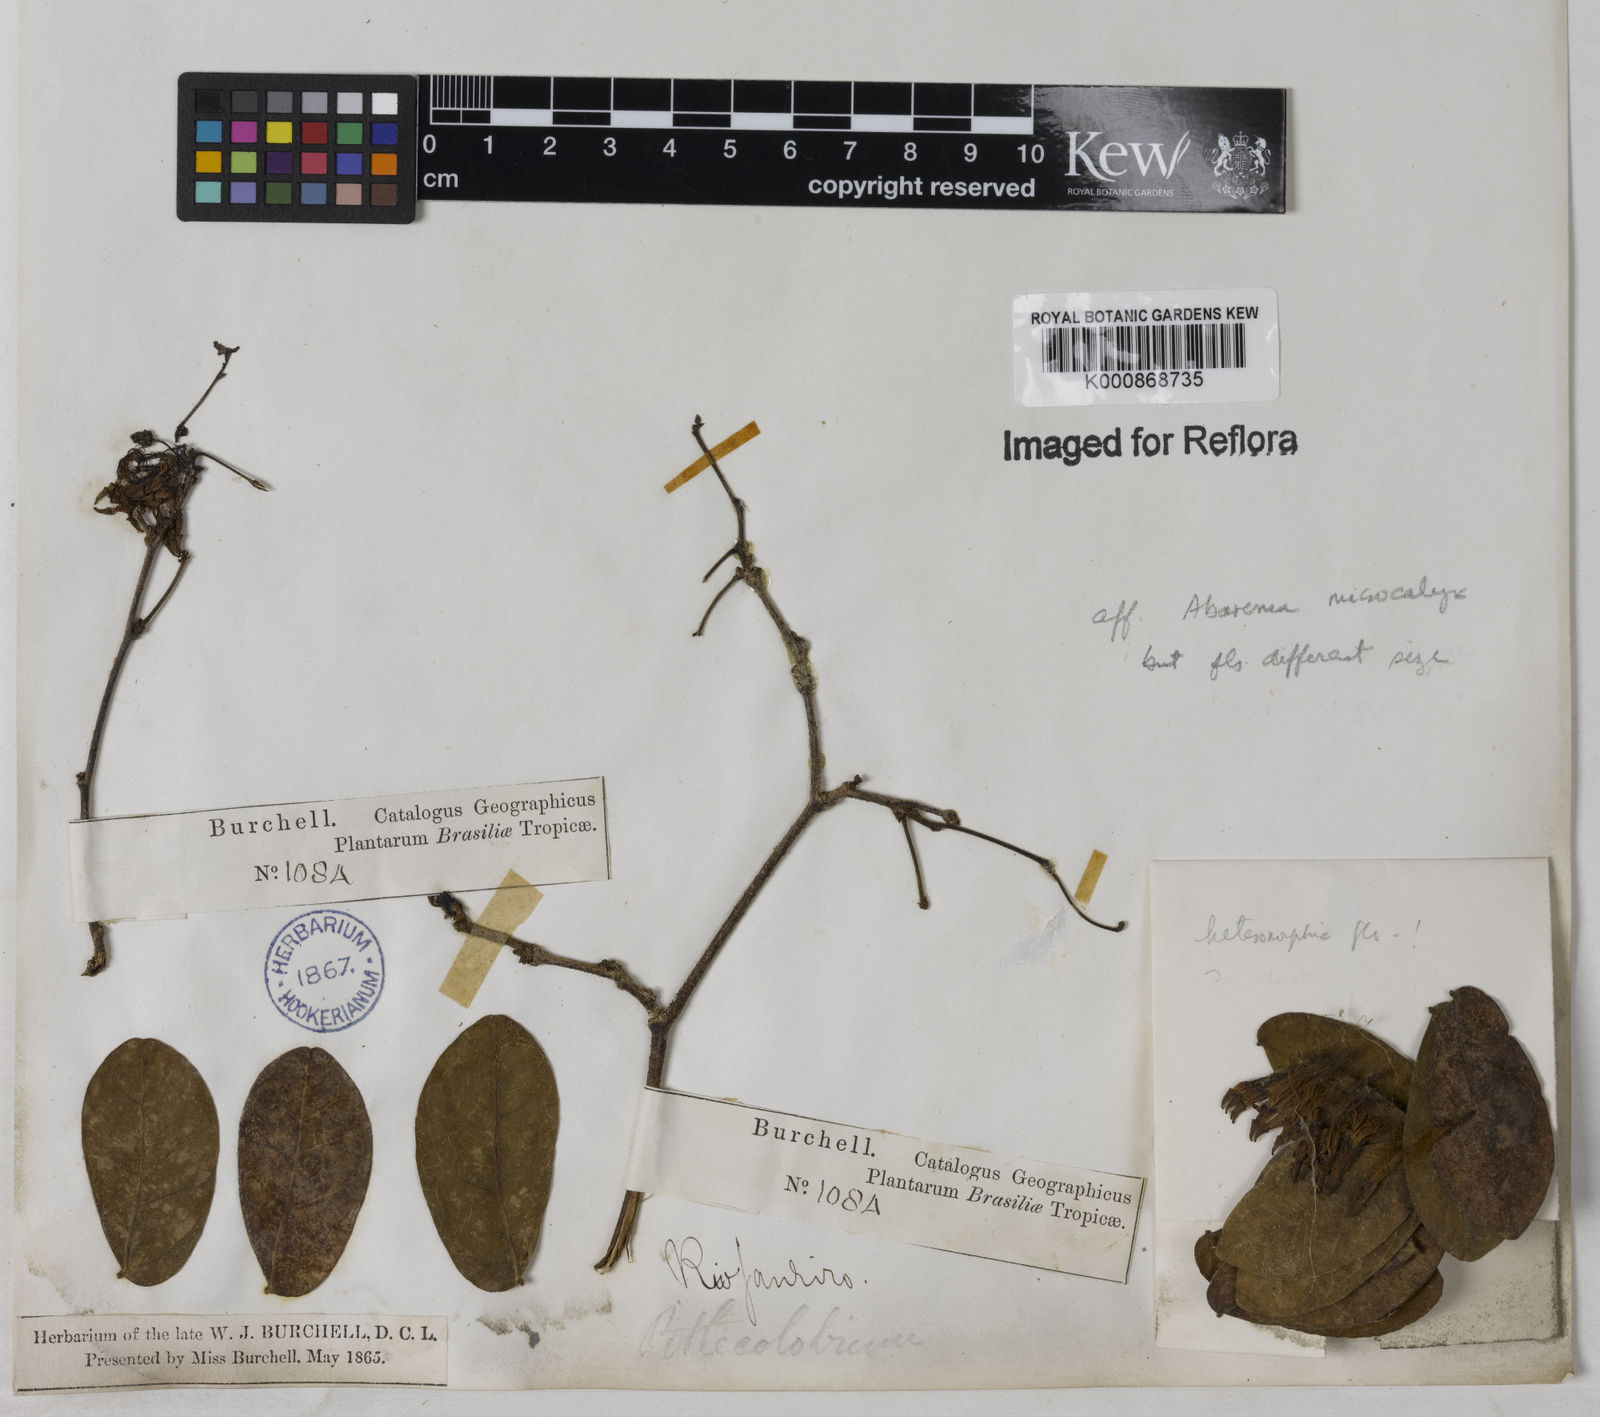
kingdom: Plantae
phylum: Tracheophyta
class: Magnoliopsida
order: Fabales
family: Fabaceae
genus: Abarema
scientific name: Abarema
